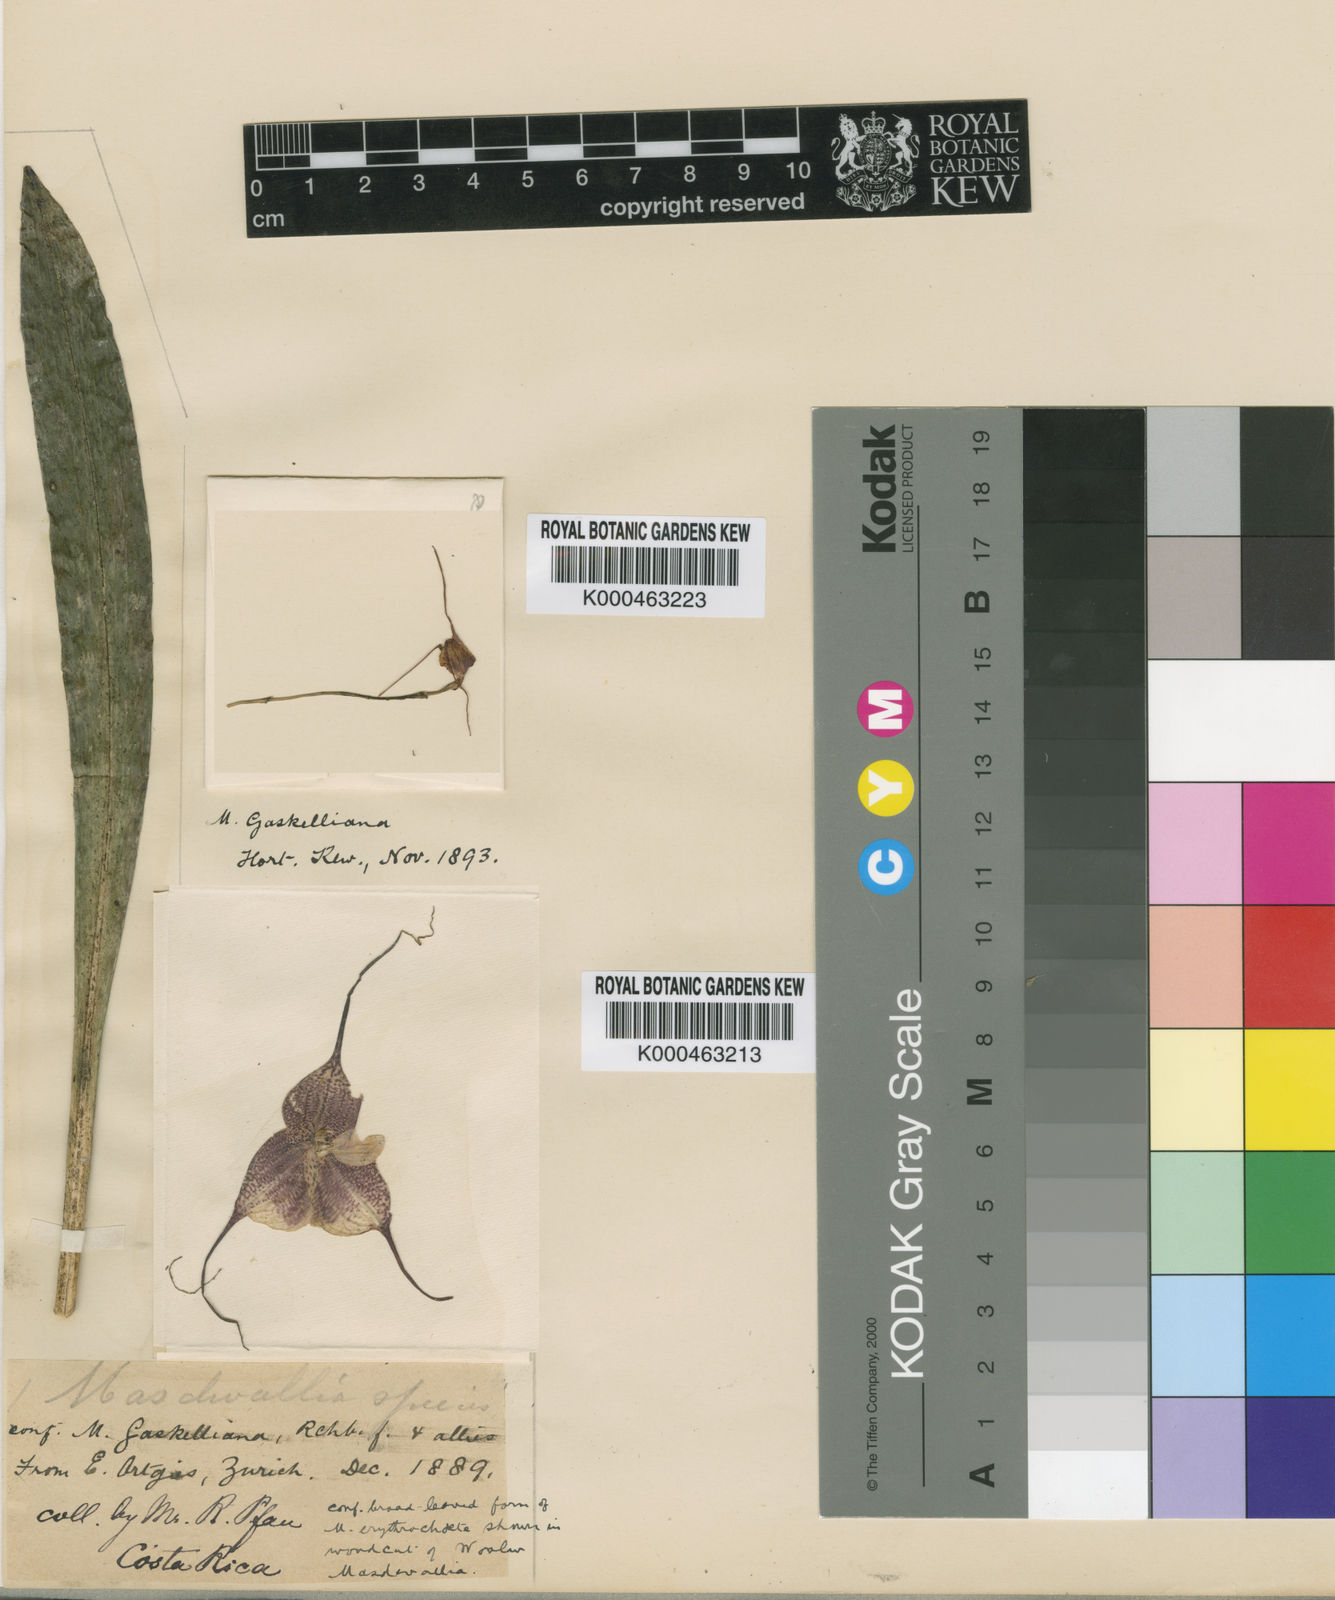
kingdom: Plantae
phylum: Tracheophyta
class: Liliopsida
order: Asparagales
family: Orchidaceae
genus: Dracula
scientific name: Dracula erythrochaete
